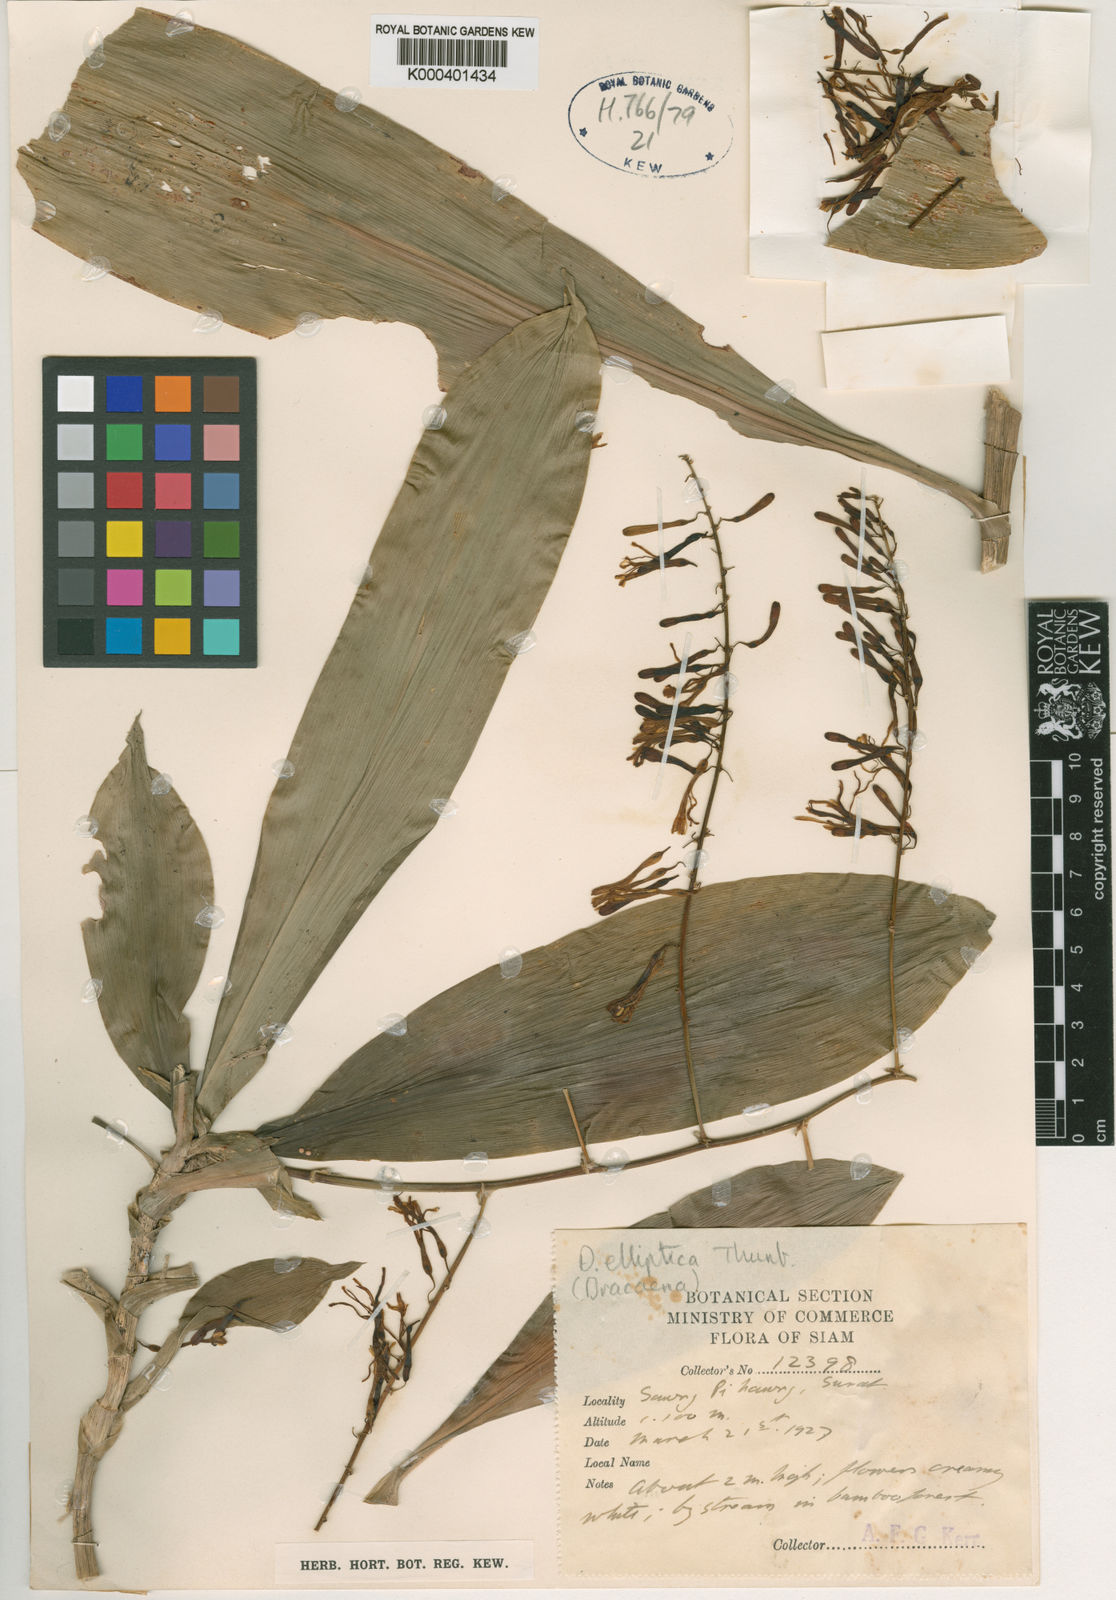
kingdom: Plantae
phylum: Tracheophyta
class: Liliopsida
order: Asparagales
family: Asparagaceae
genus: Dracaena
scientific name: Dracaena elliptica
